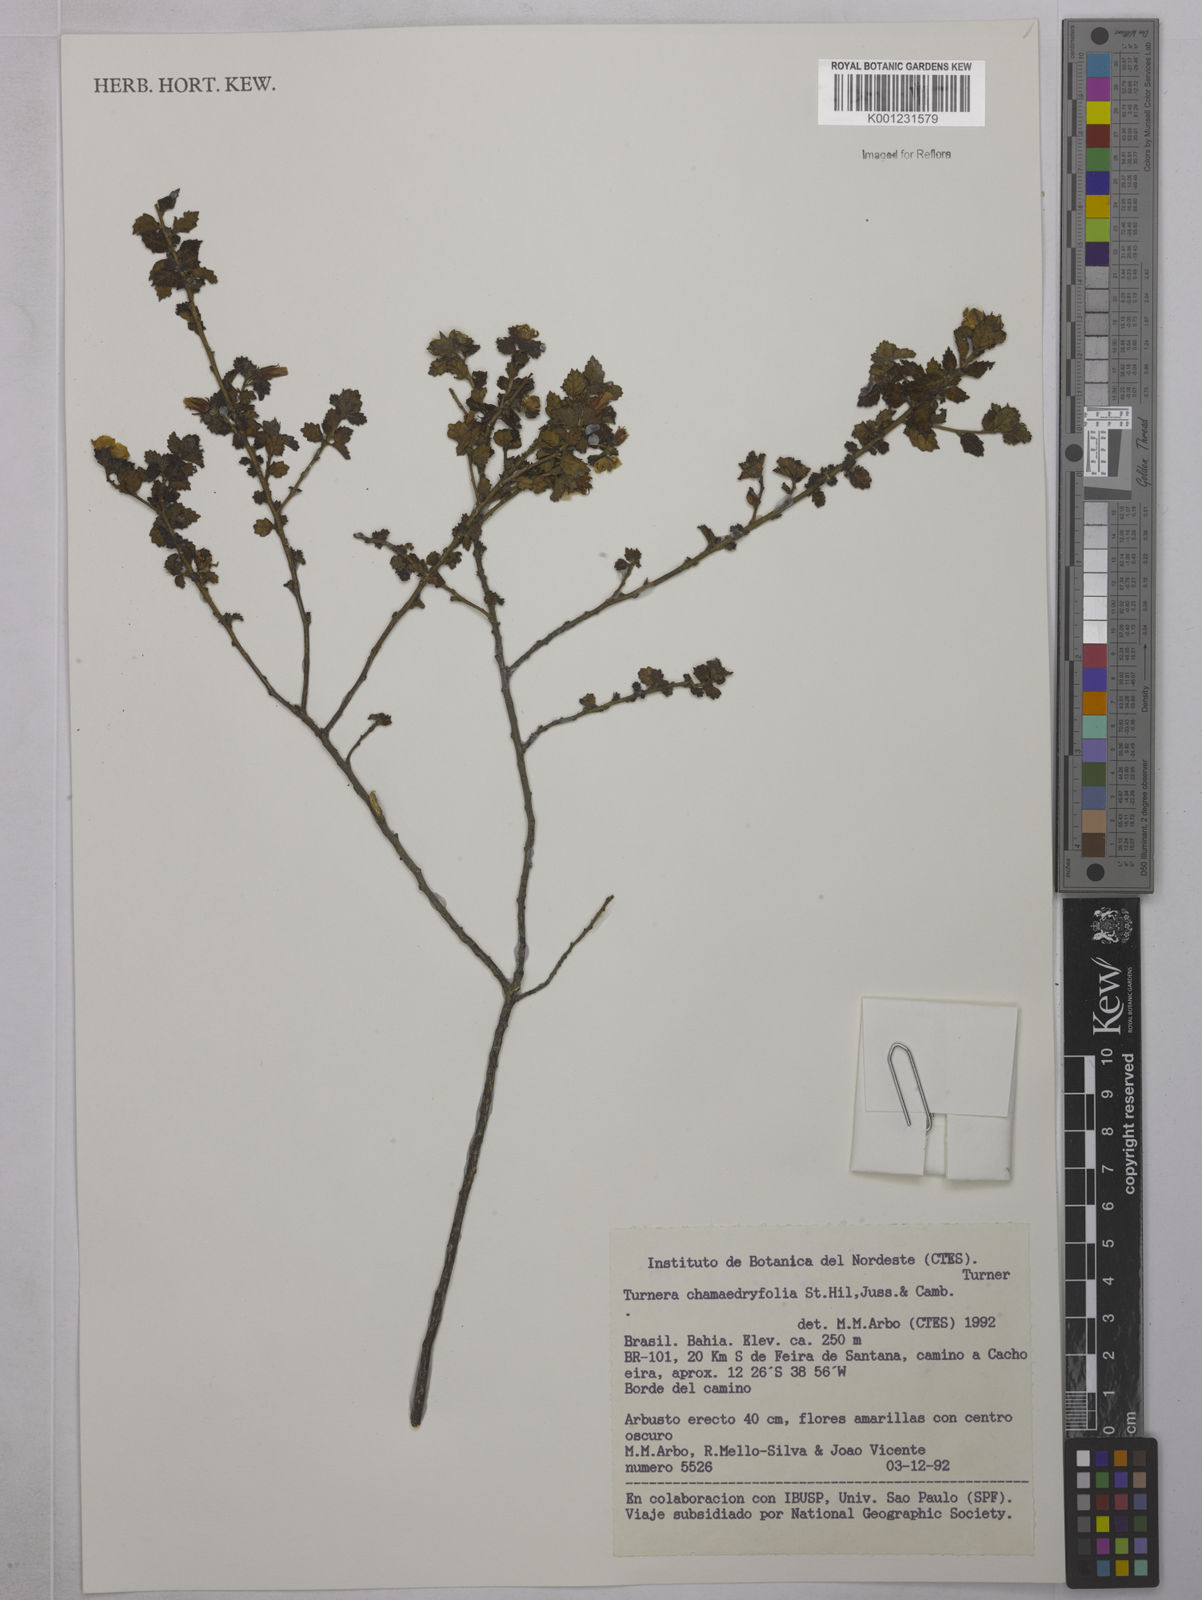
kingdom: Plantae
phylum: Tracheophyta
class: Magnoliopsida
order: Malpighiales
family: Turneraceae
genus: Turnera
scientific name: Turnera chamaedrifolia
